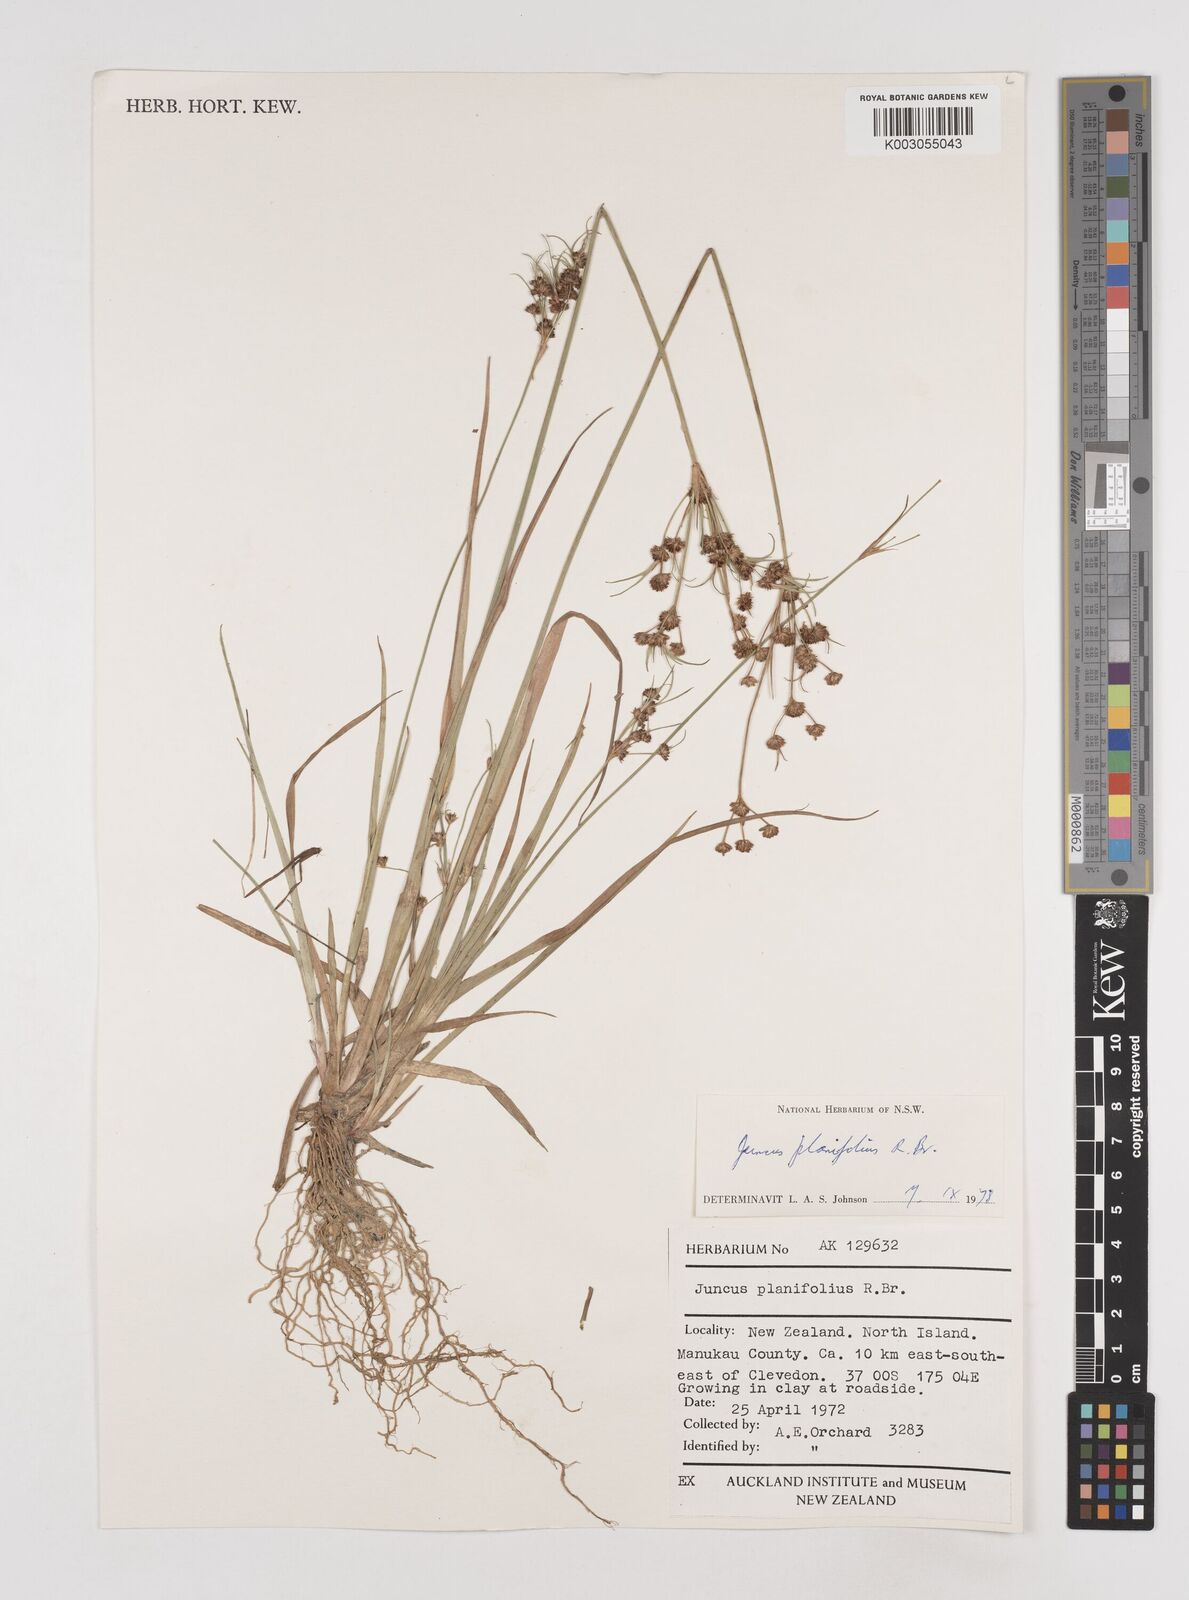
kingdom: Plantae
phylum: Tracheophyta
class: Liliopsida
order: Poales
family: Juncaceae
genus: Juncus
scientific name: Juncus planifolius
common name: Broadleaf rush
